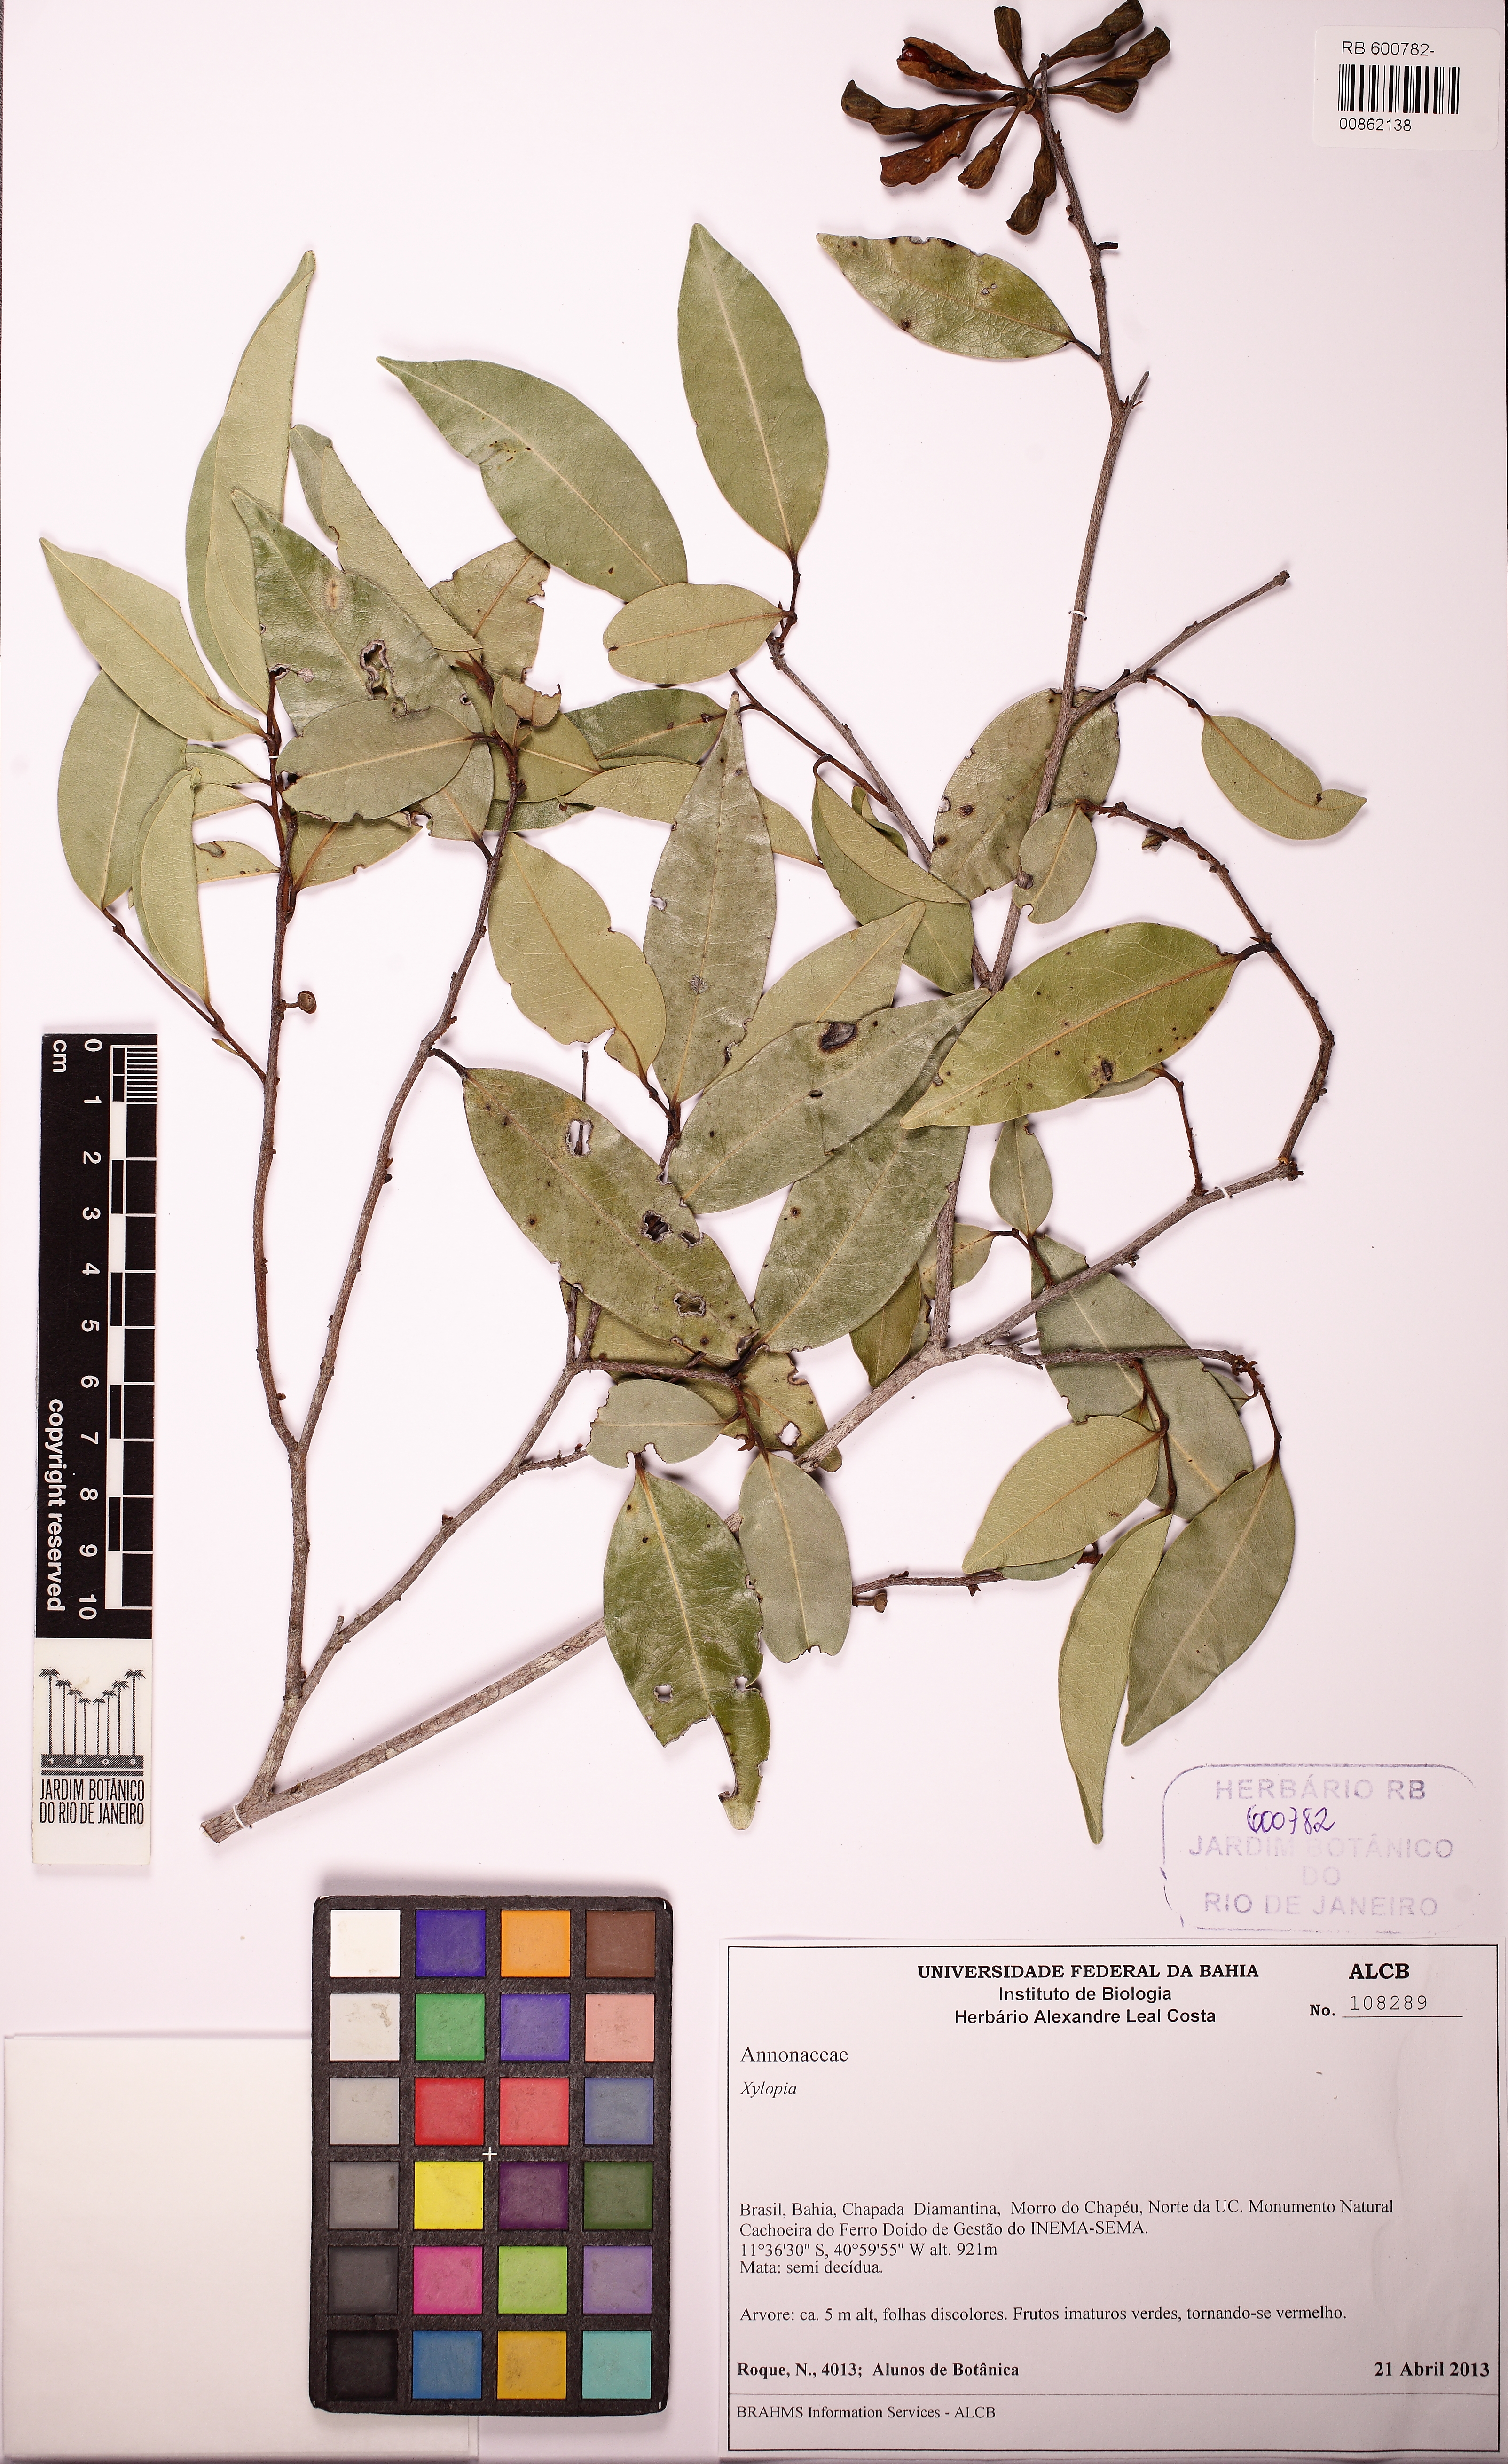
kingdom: Plantae
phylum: Tracheophyta
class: Magnoliopsida
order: Magnoliales
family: Annonaceae
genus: Xylopia
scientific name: Xylopia laevigata
